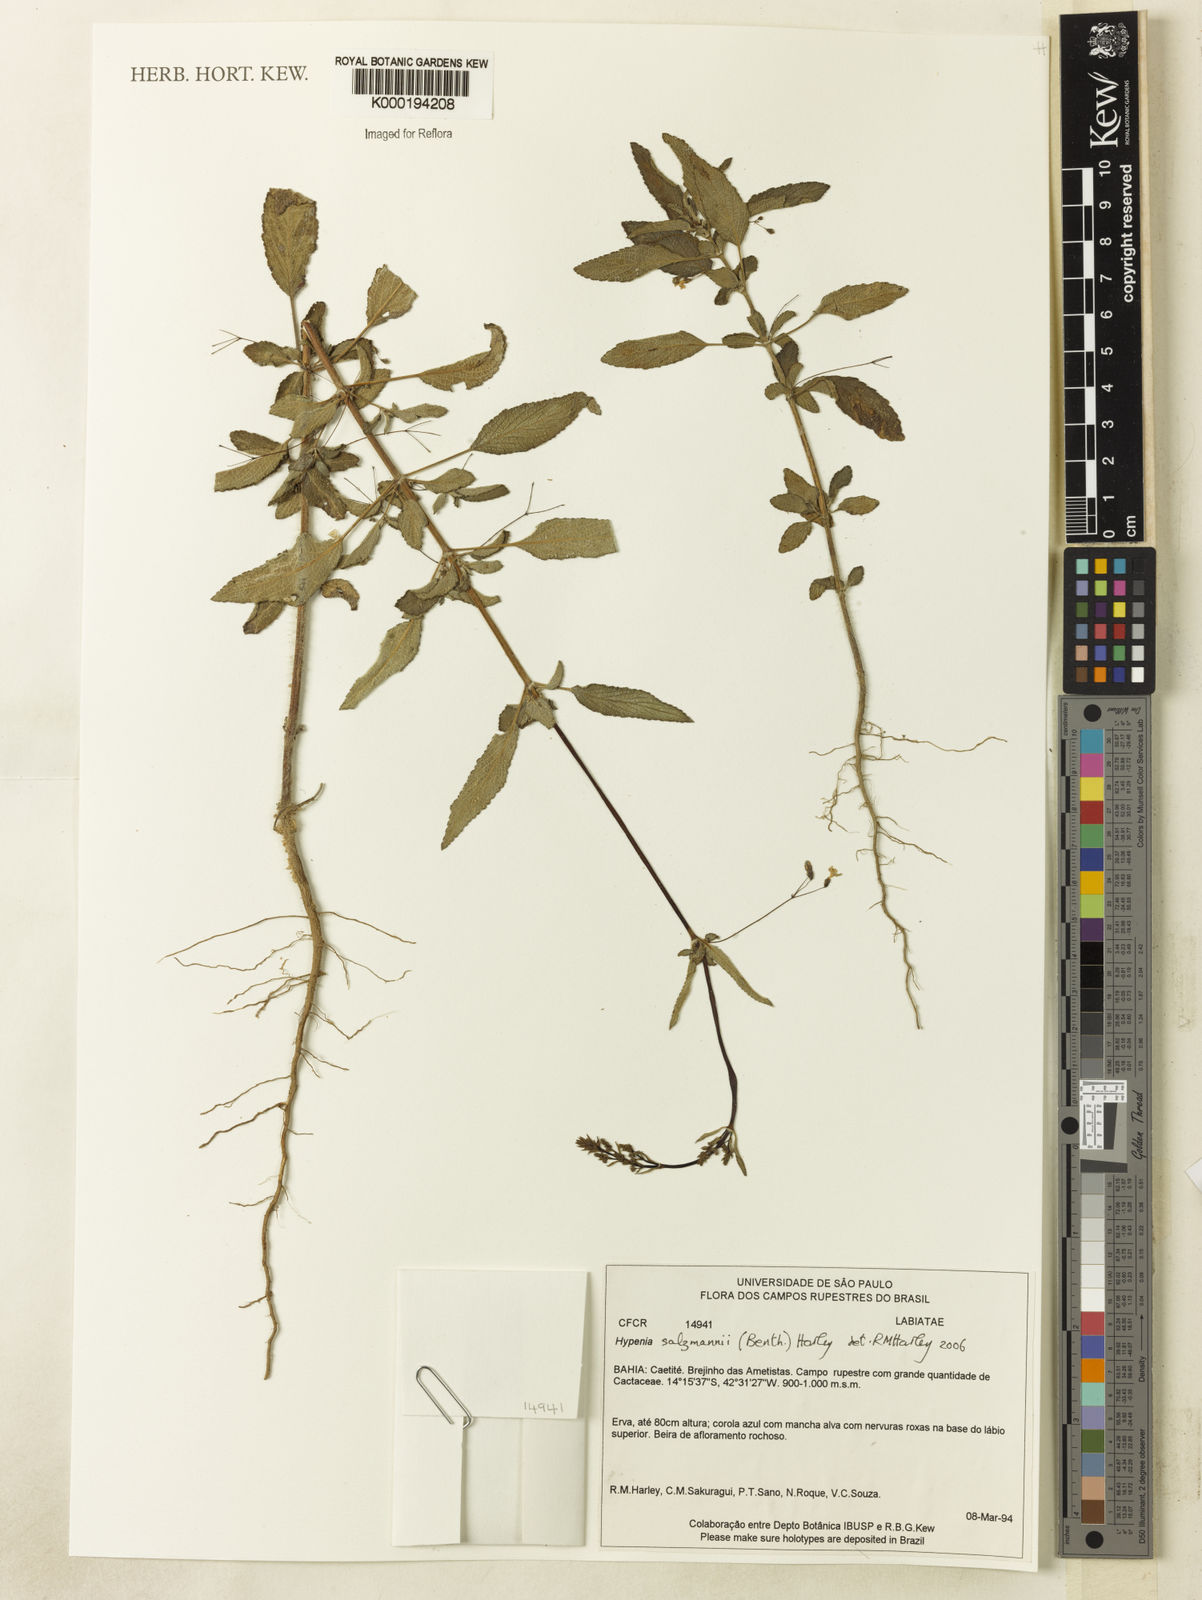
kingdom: Plantae
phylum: Tracheophyta
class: Magnoliopsida
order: Lamiales
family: Lamiaceae
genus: Hypenia
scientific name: Hypenia salzmannii
